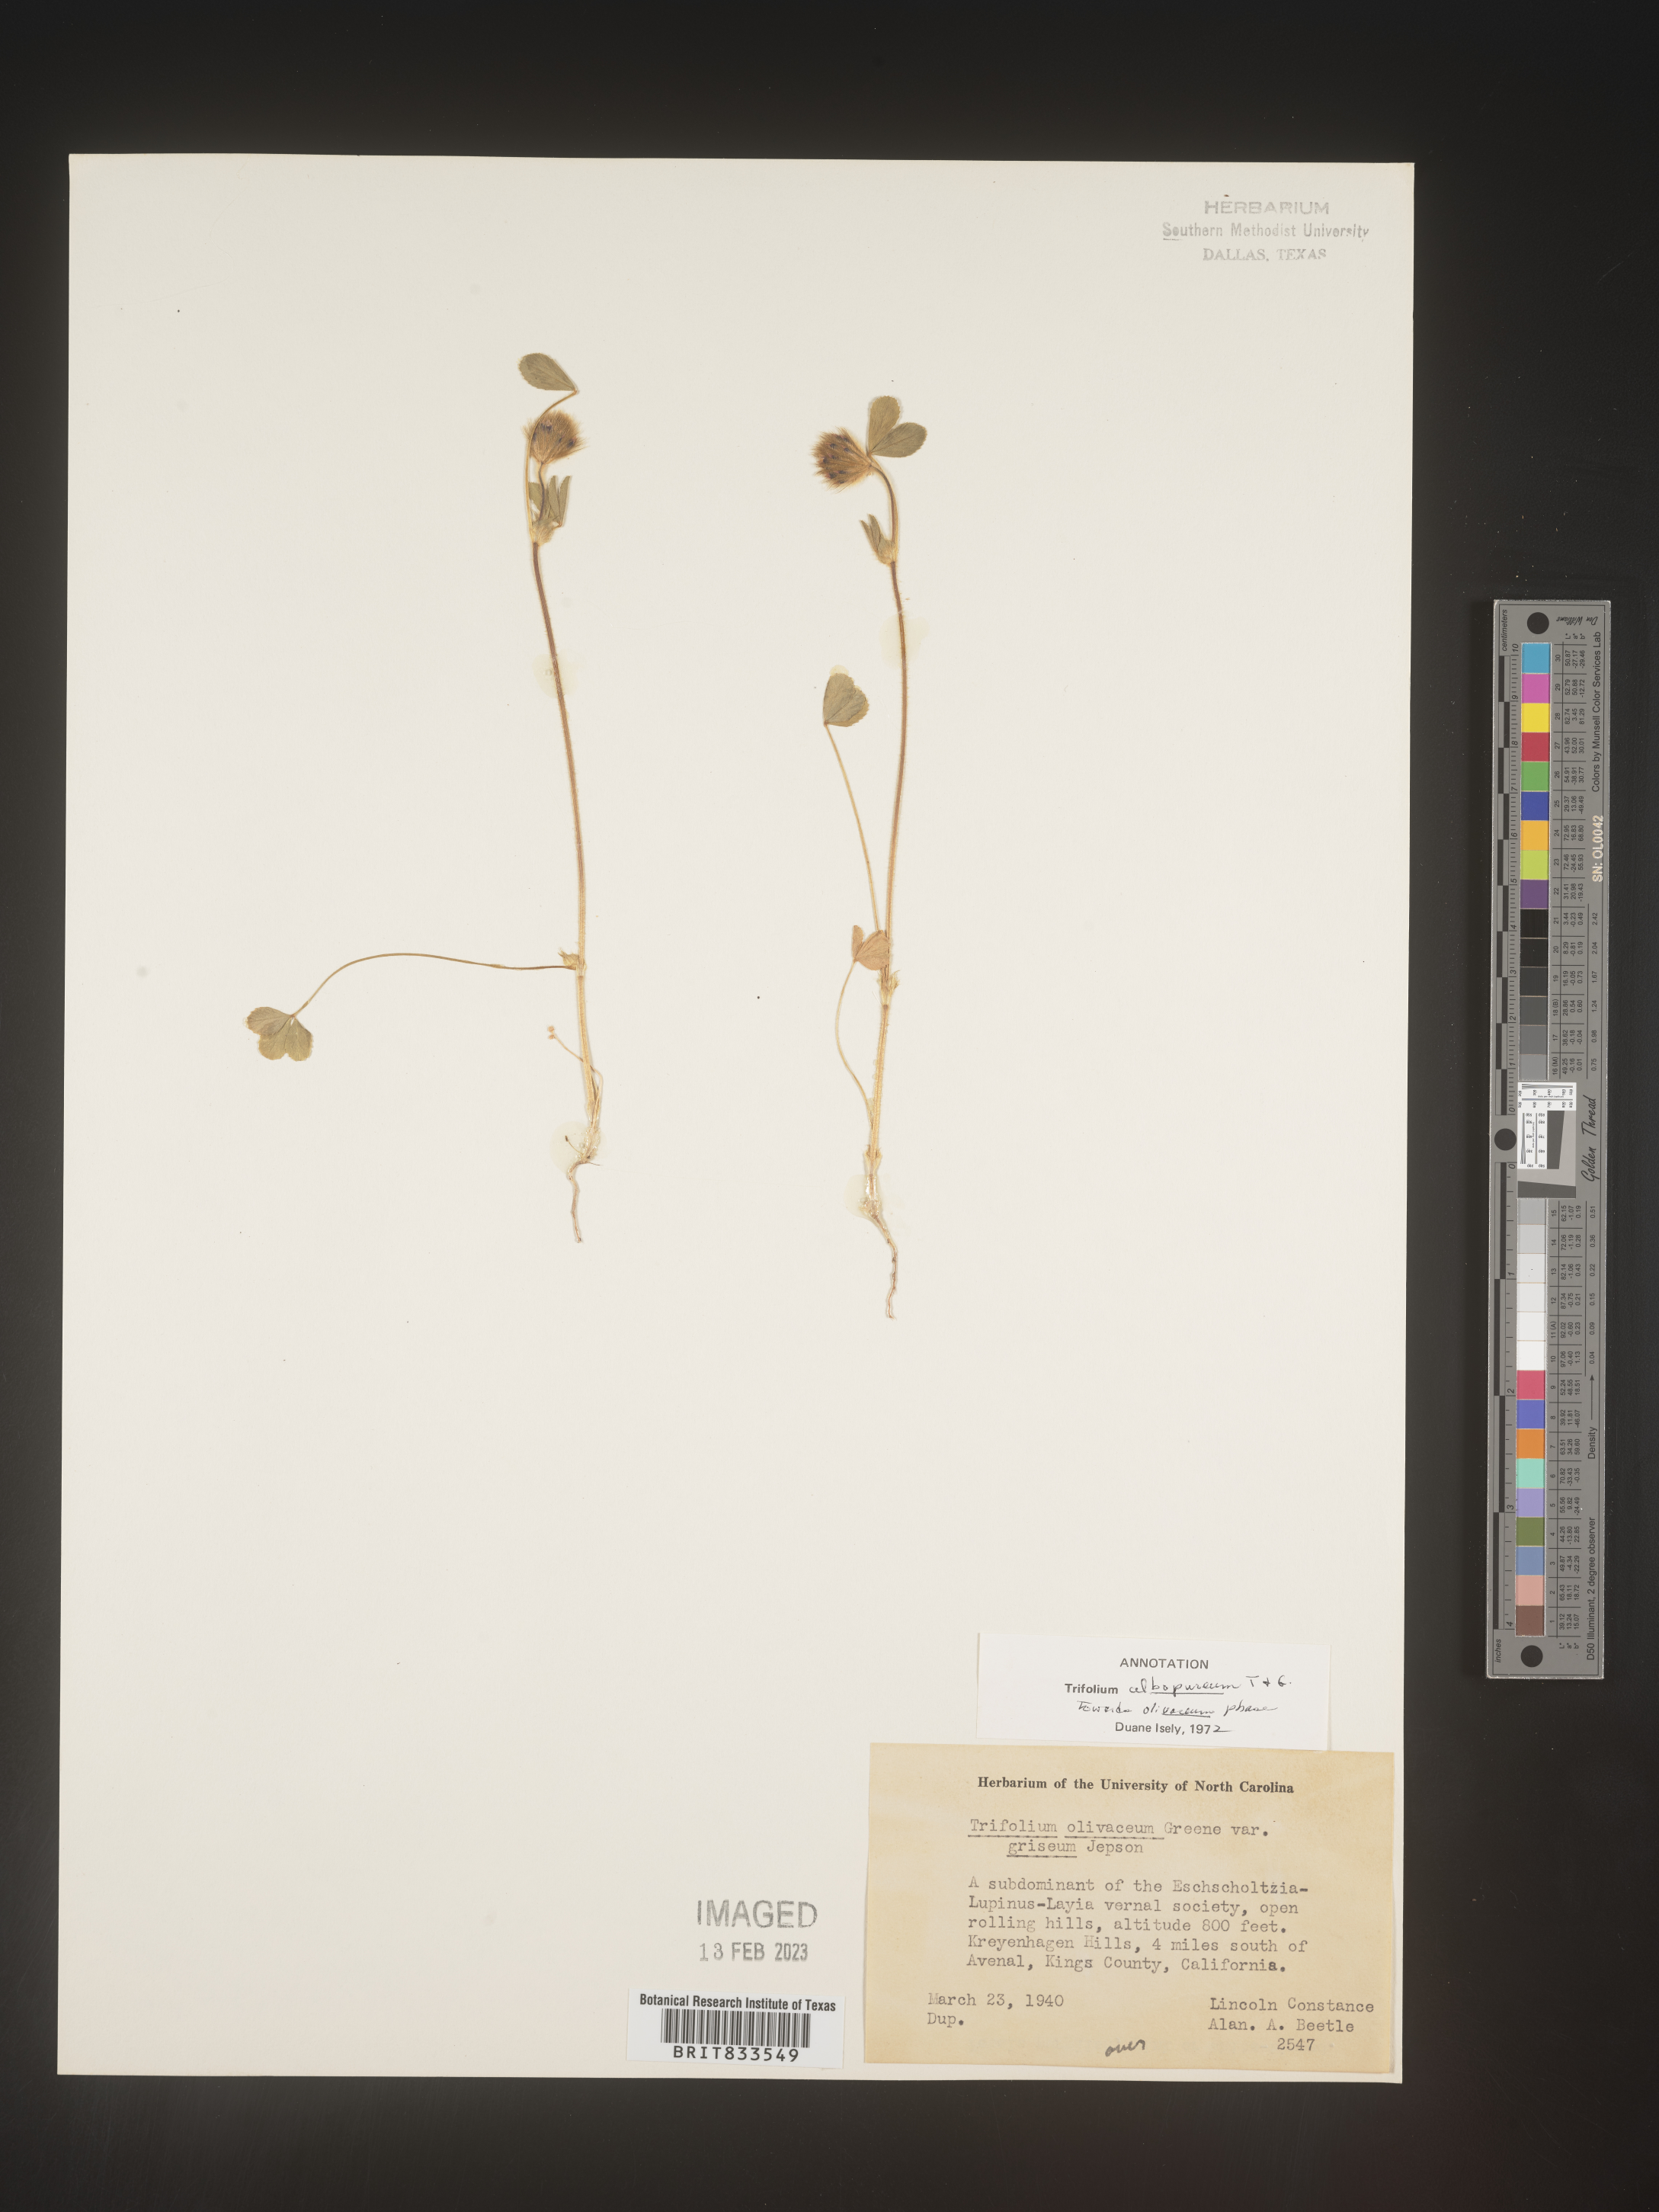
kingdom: Plantae
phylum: Tracheophyta
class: Magnoliopsida
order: Fabales
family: Fabaceae
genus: Trifolium
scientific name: Trifolium
